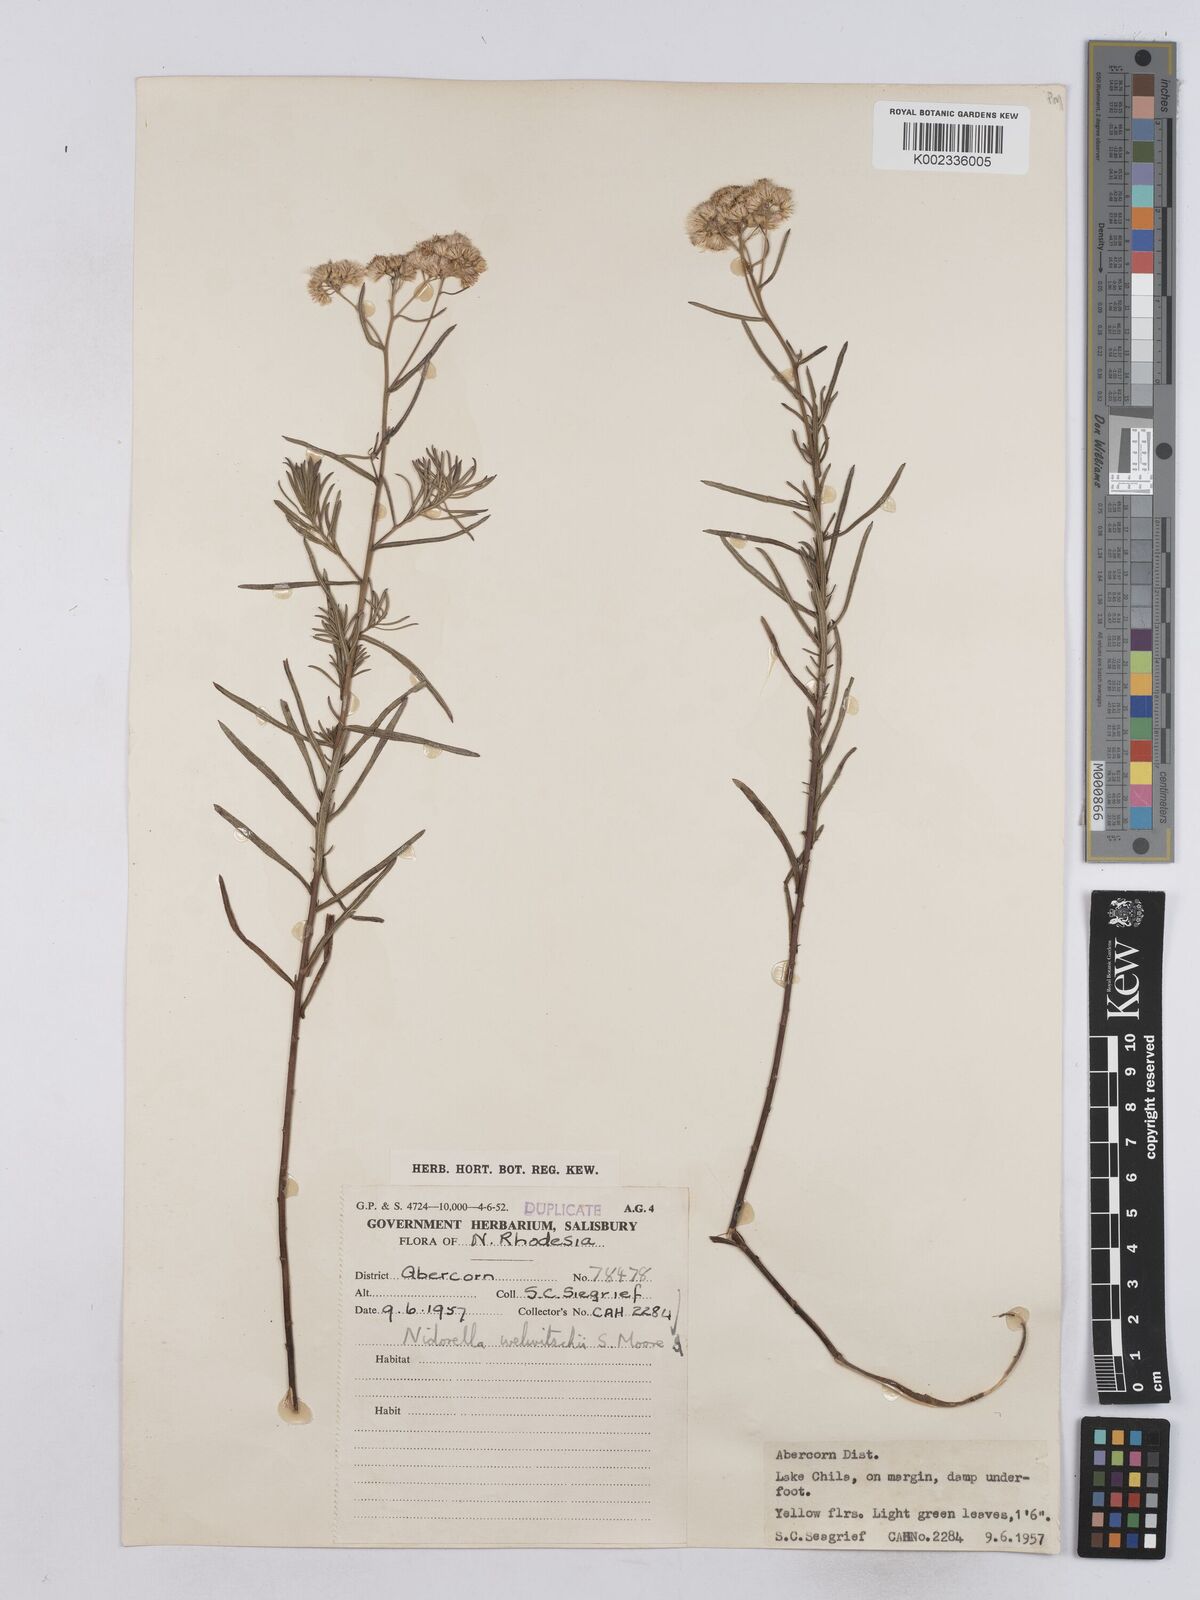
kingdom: Plantae
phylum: Tracheophyta
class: Magnoliopsida
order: Asterales
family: Asteraceae
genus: Nidorella
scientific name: Nidorella welwitschii
